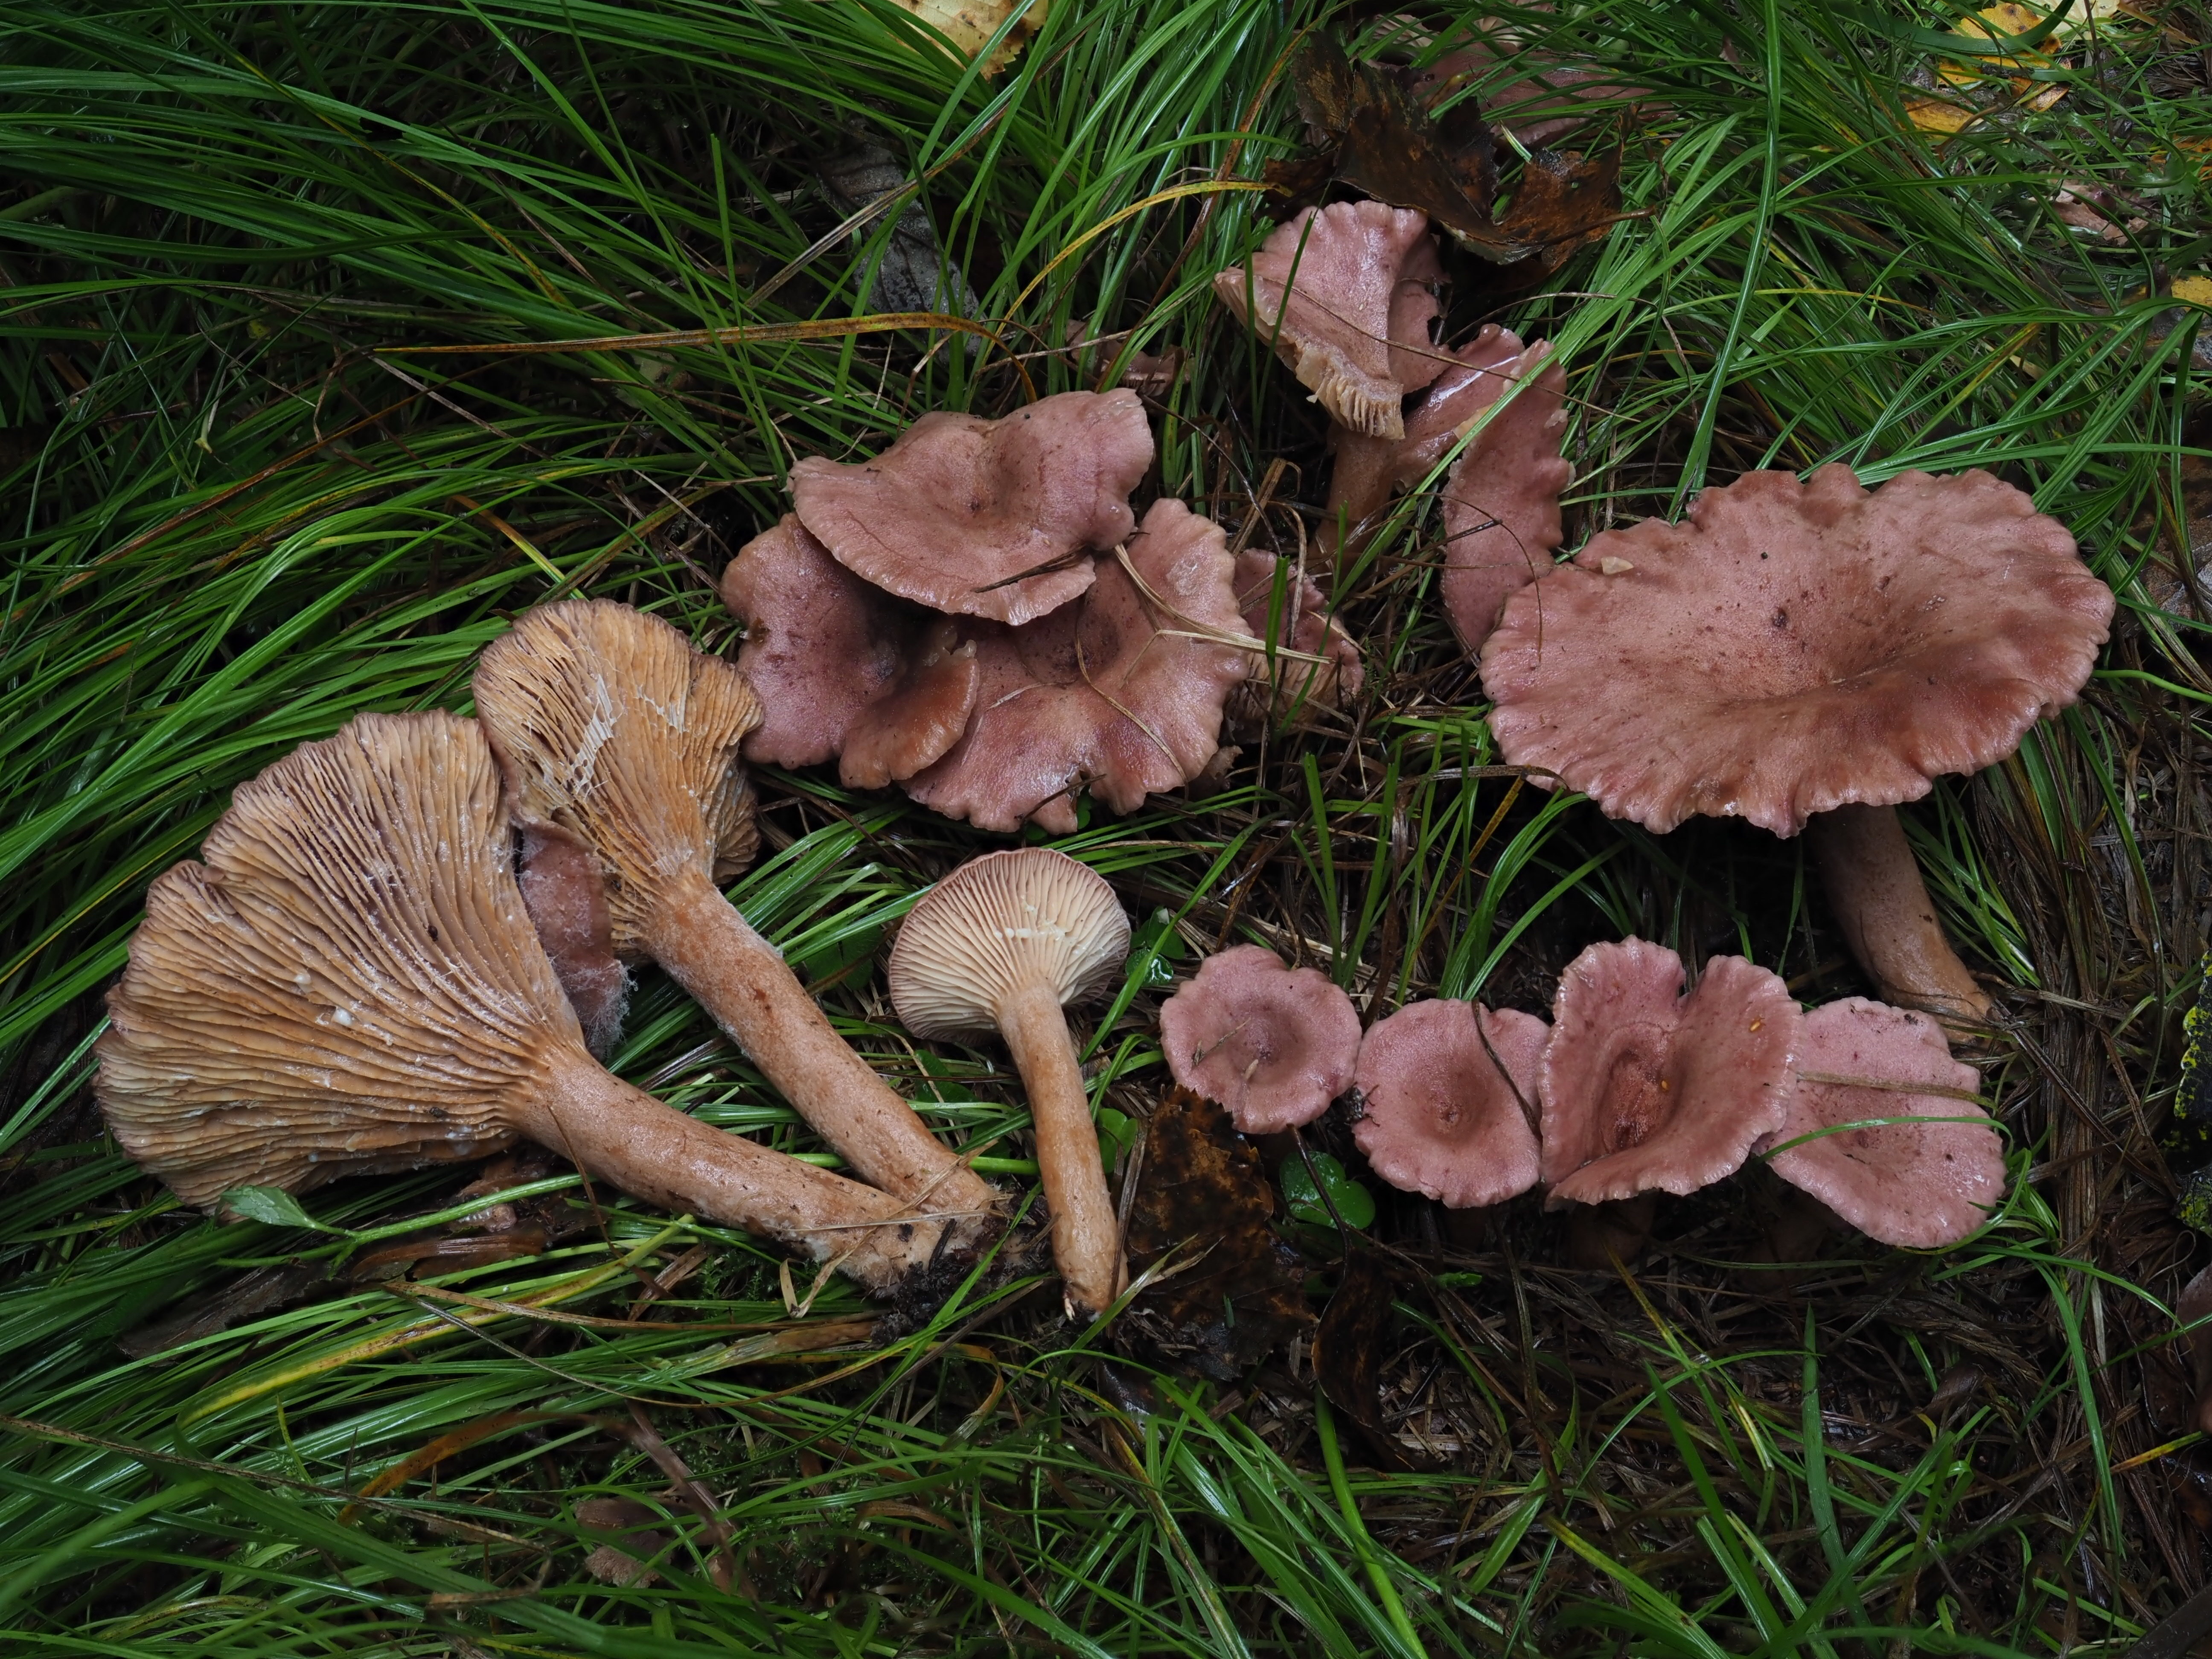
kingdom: Fungi
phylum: Basidiomycota
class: Agaricomycetes
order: Russulales
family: Russulaceae
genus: Lactarius
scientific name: Lactarius lilacinus
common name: Lilac milkcap
